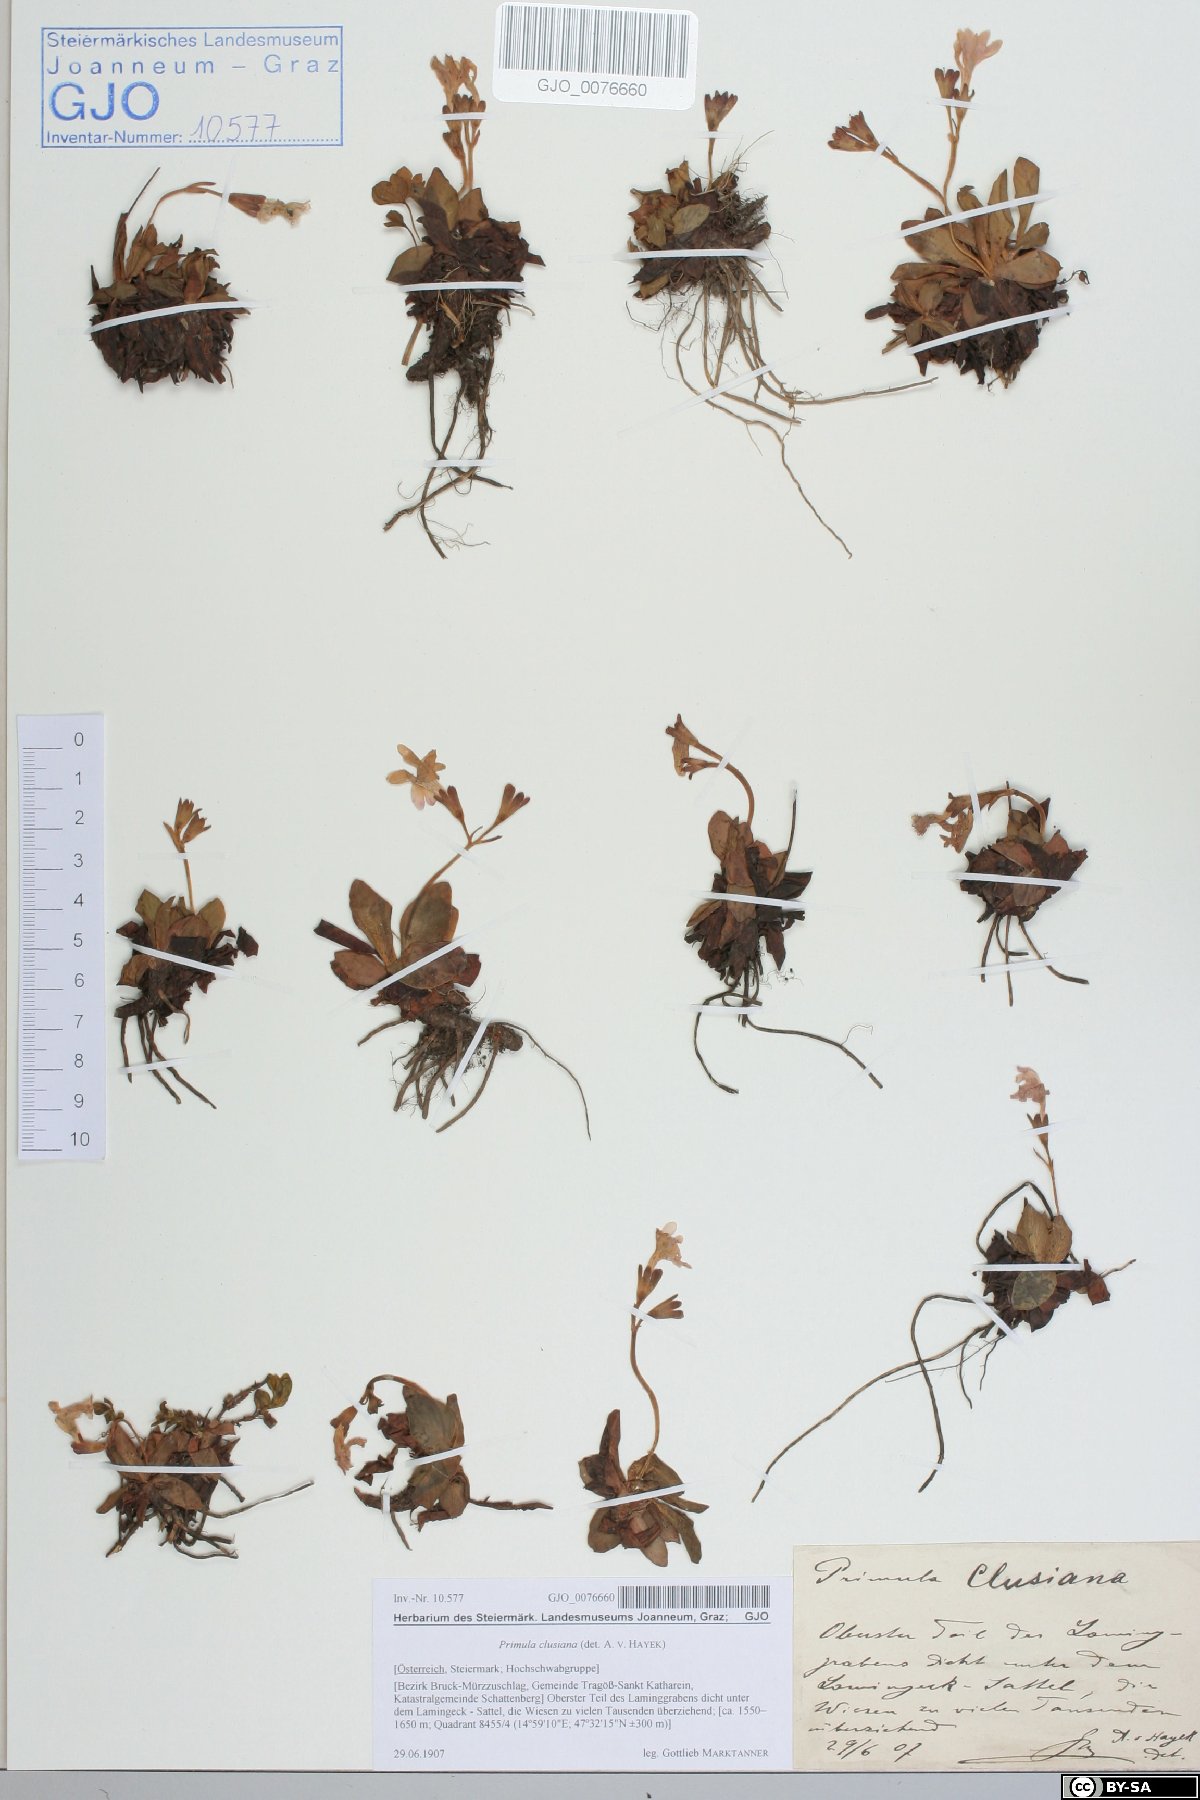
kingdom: Plantae
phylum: Tracheophyta
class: Magnoliopsida
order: Ericales
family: Primulaceae
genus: Primula
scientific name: Primula clusiana
